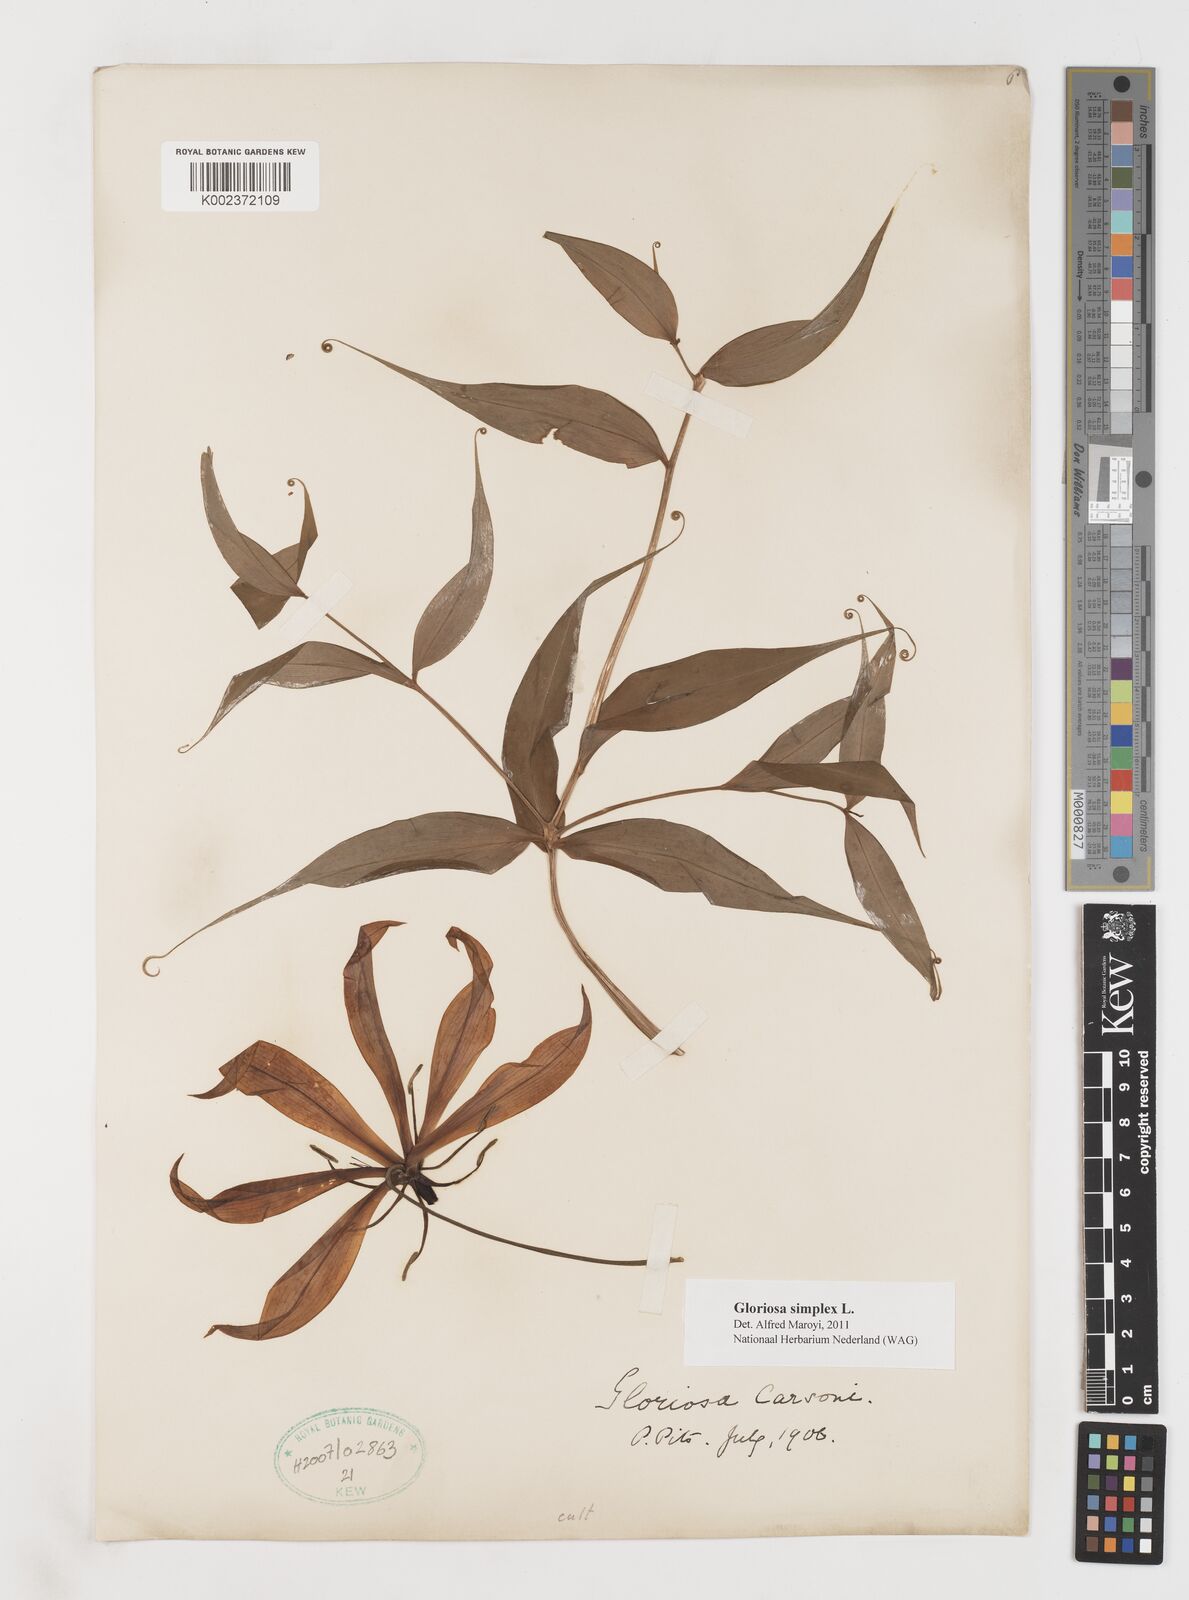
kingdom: Plantae
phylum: Tracheophyta
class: Liliopsida
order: Liliales
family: Colchicaceae
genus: Gloriosa
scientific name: Gloriosa simplex
